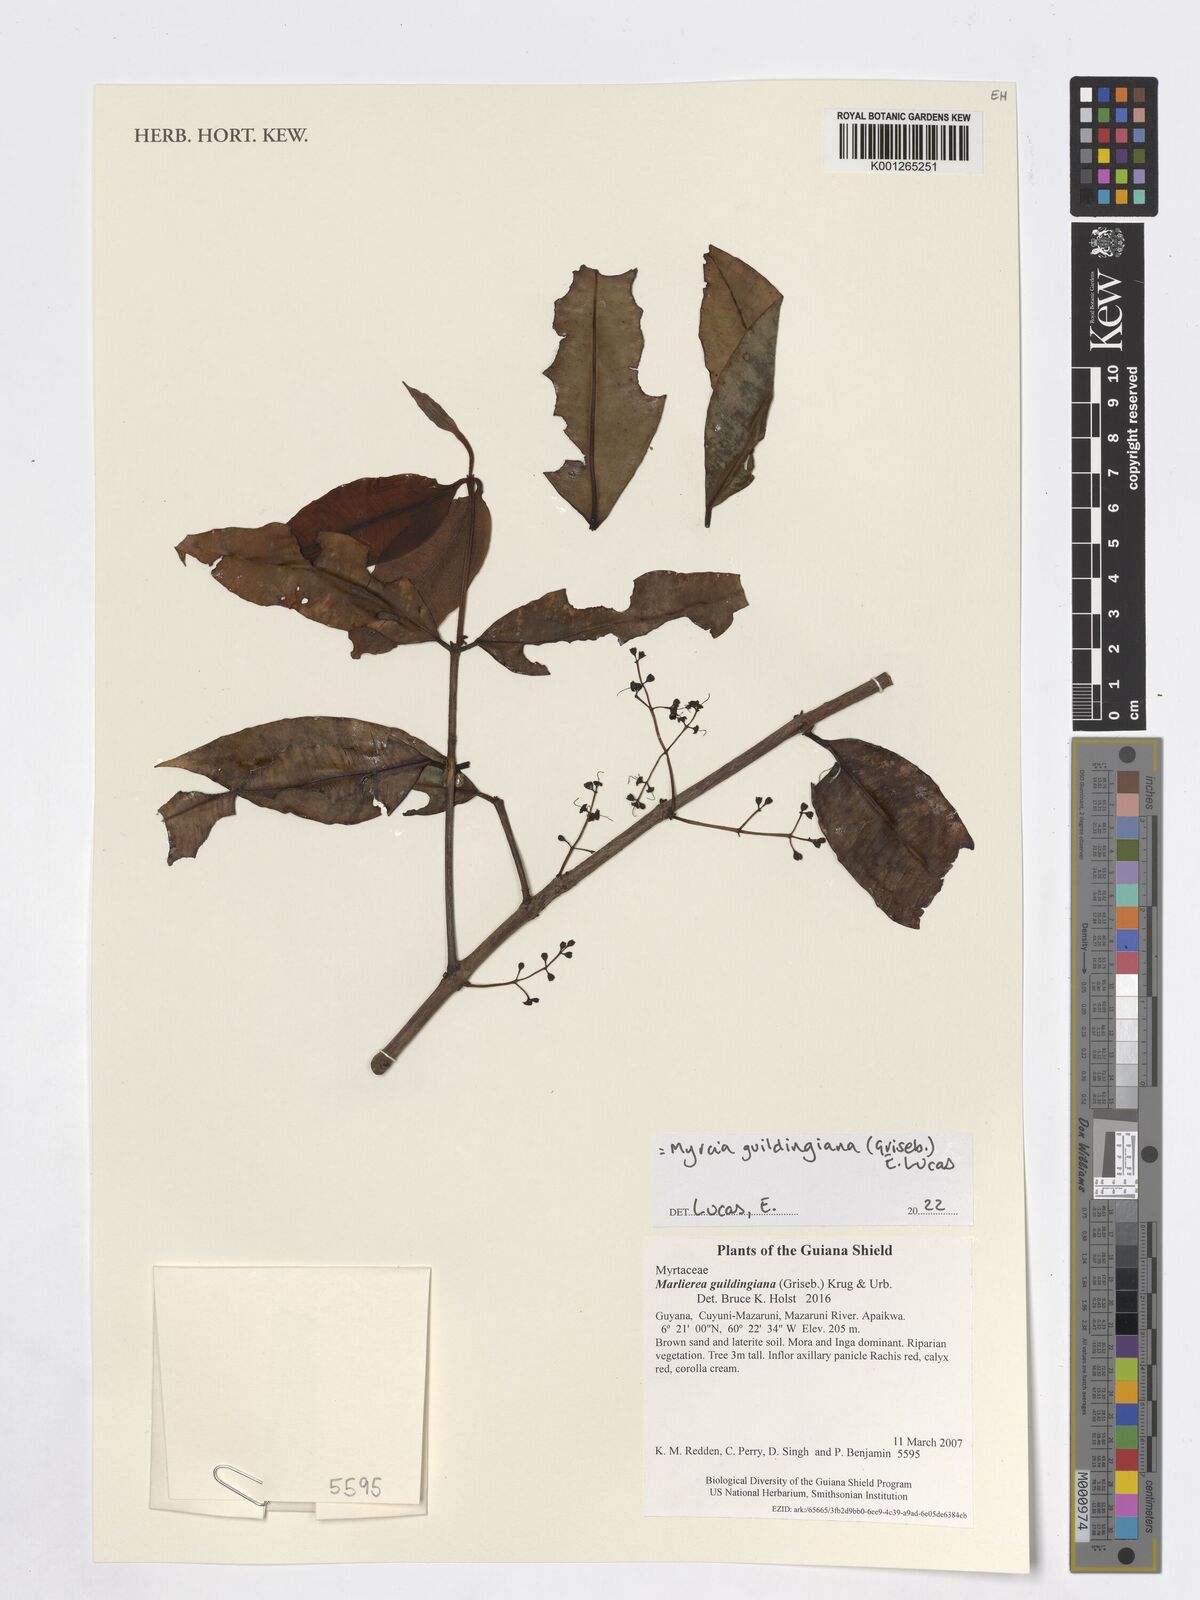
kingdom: Plantae
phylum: Tracheophyta
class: Magnoliopsida
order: Myrtales
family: Myrtaceae
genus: Myrcia
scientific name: Myrcia guildingiana
